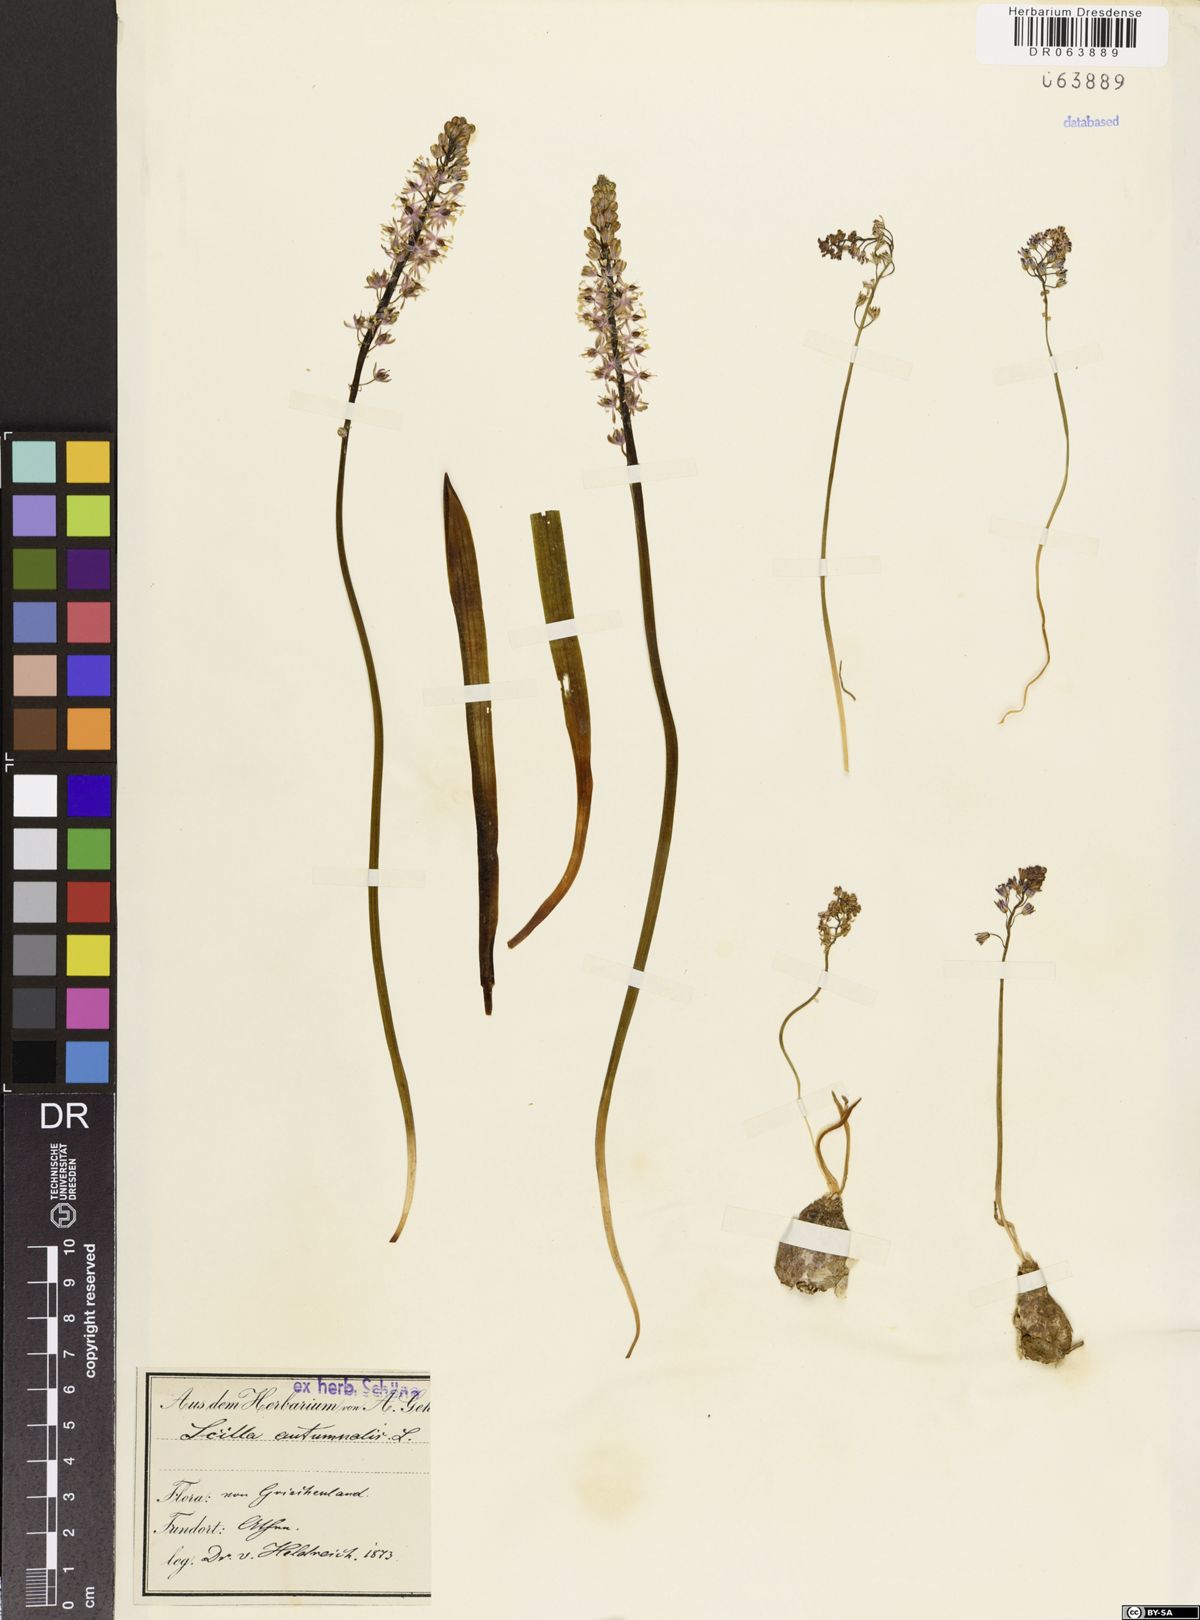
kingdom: Plantae
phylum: Tracheophyta
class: Liliopsida
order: Asparagales
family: Asparagaceae
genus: Prospero
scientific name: Prospero autumnale
